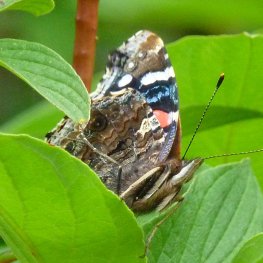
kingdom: Animalia
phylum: Arthropoda
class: Insecta
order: Lepidoptera
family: Nymphalidae
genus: Vanessa
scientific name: Vanessa atalanta
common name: Red Admiral
